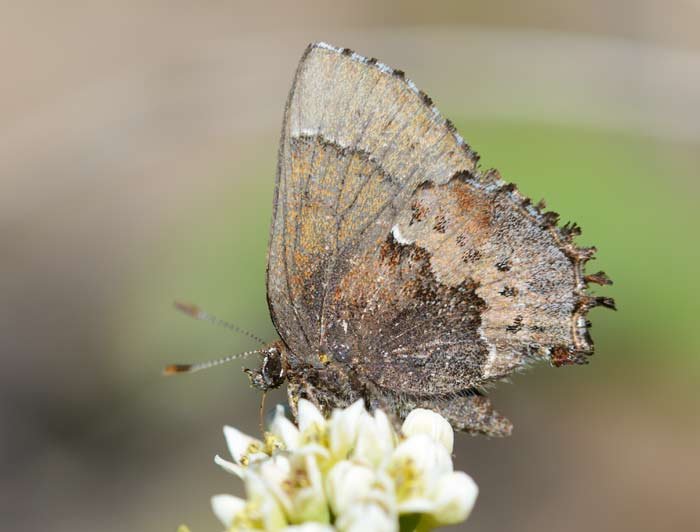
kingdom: Animalia
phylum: Arthropoda
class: Insecta
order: Lepidoptera
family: Lycaenidae
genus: Incisalia
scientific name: Incisalia henrici
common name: Henry's Elfin
